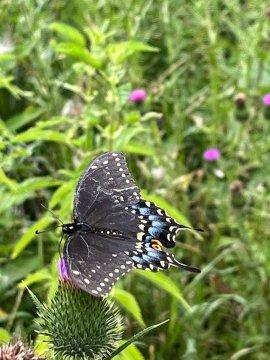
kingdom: Animalia
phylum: Arthropoda
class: Insecta
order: Lepidoptera
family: Papilionidae
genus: Papilio
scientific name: Papilio polyxenes
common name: Black Swallowtail
